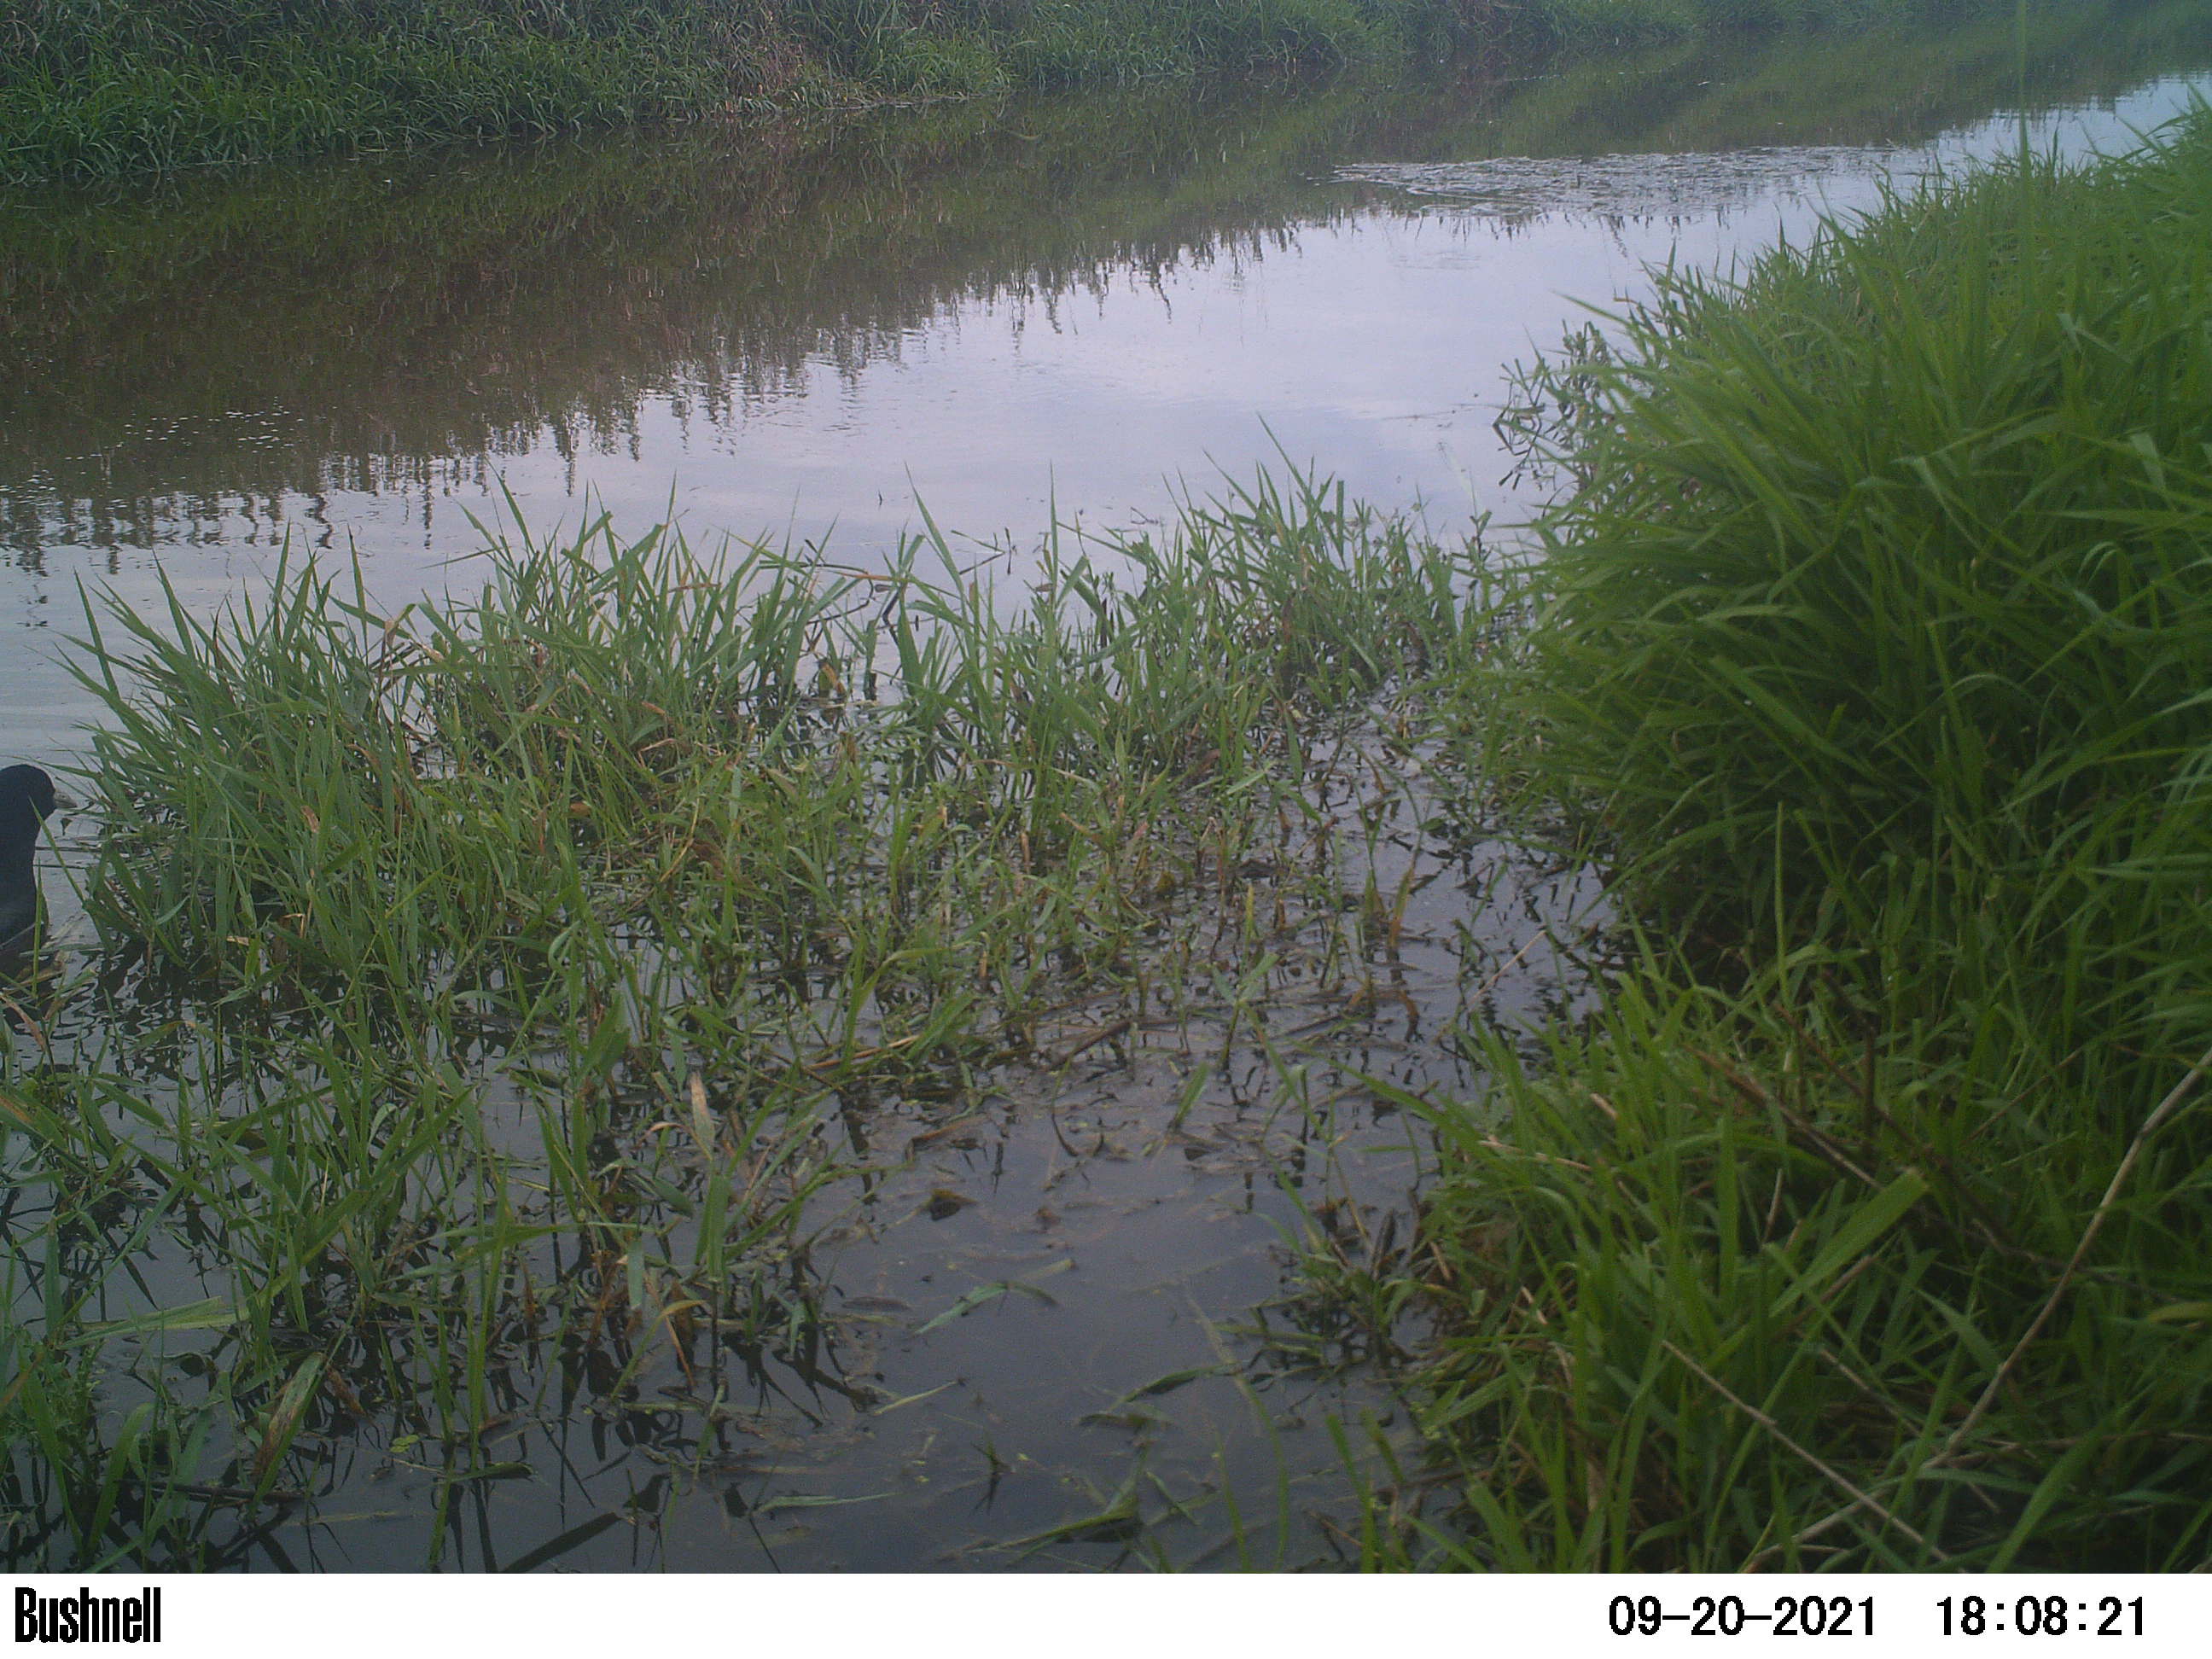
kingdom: Animalia
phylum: Chordata
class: Aves
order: Gruiformes
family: Rallidae
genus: Fulica
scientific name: Fulica atra
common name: Eurasian coot
